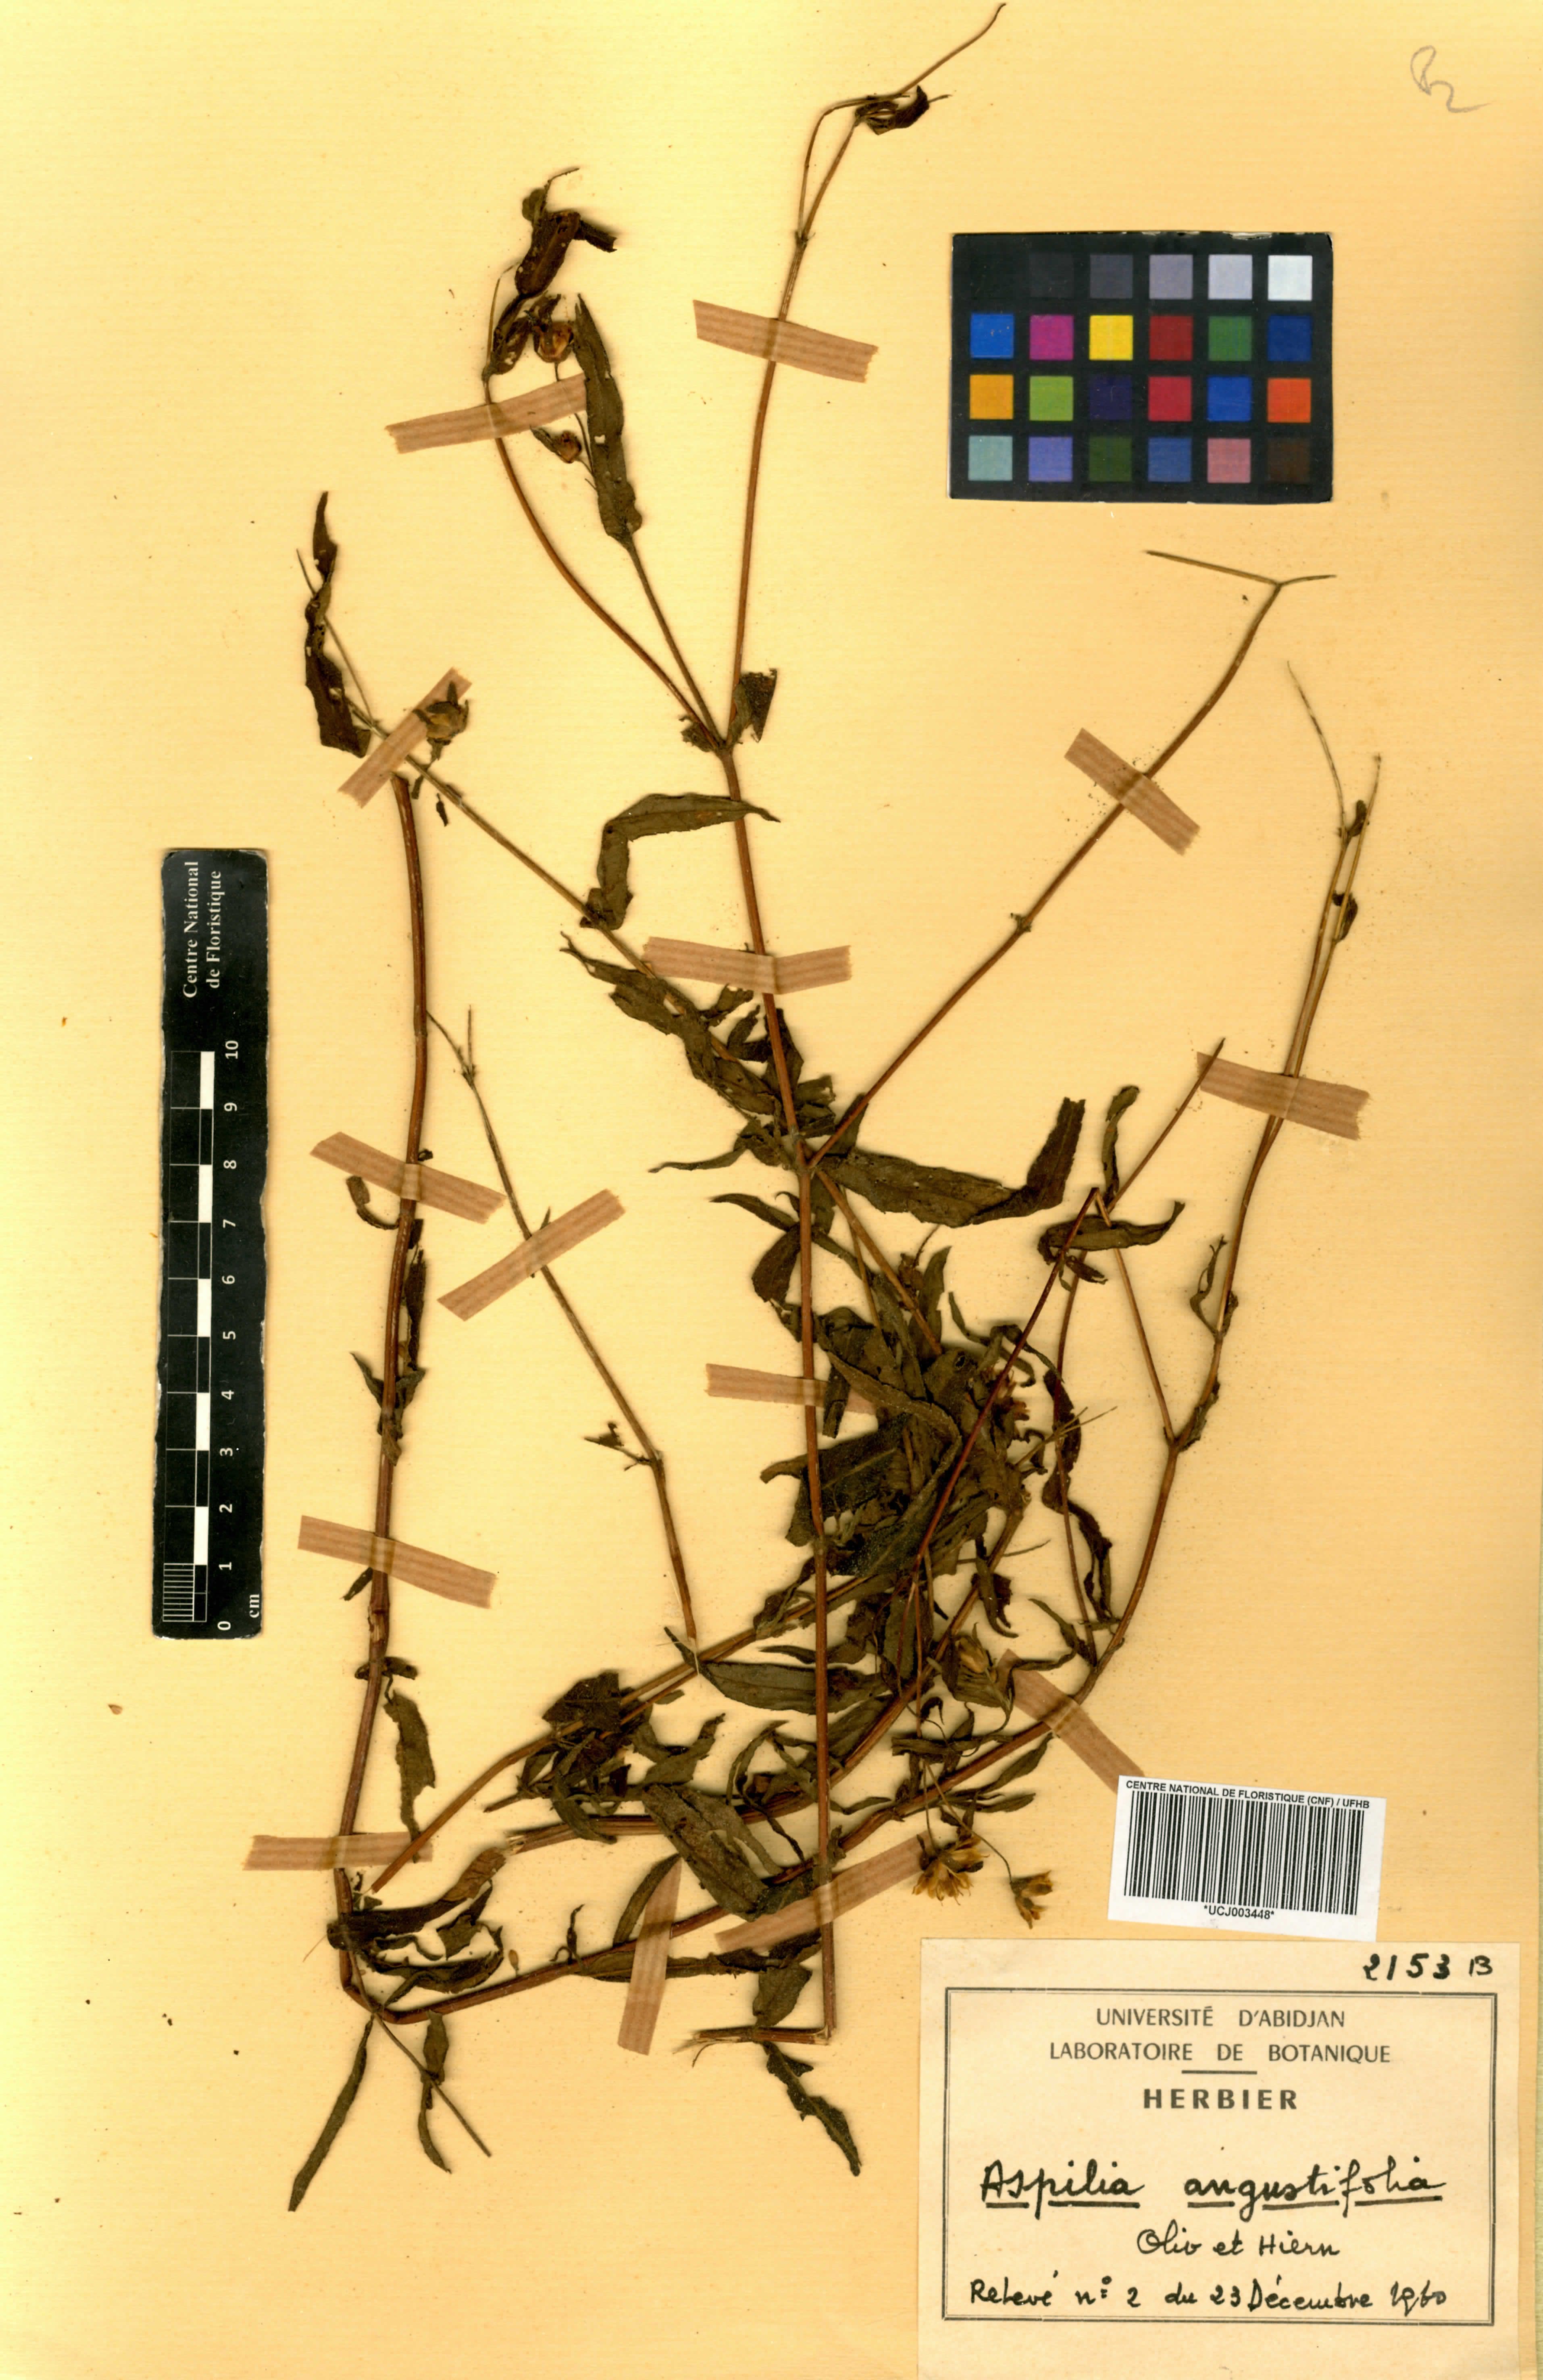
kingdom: Plantae
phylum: Tracheophyta
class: Magnoliopsida
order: Asterales
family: Asteraceae
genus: Aspilia
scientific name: Aspilia angustifolia
